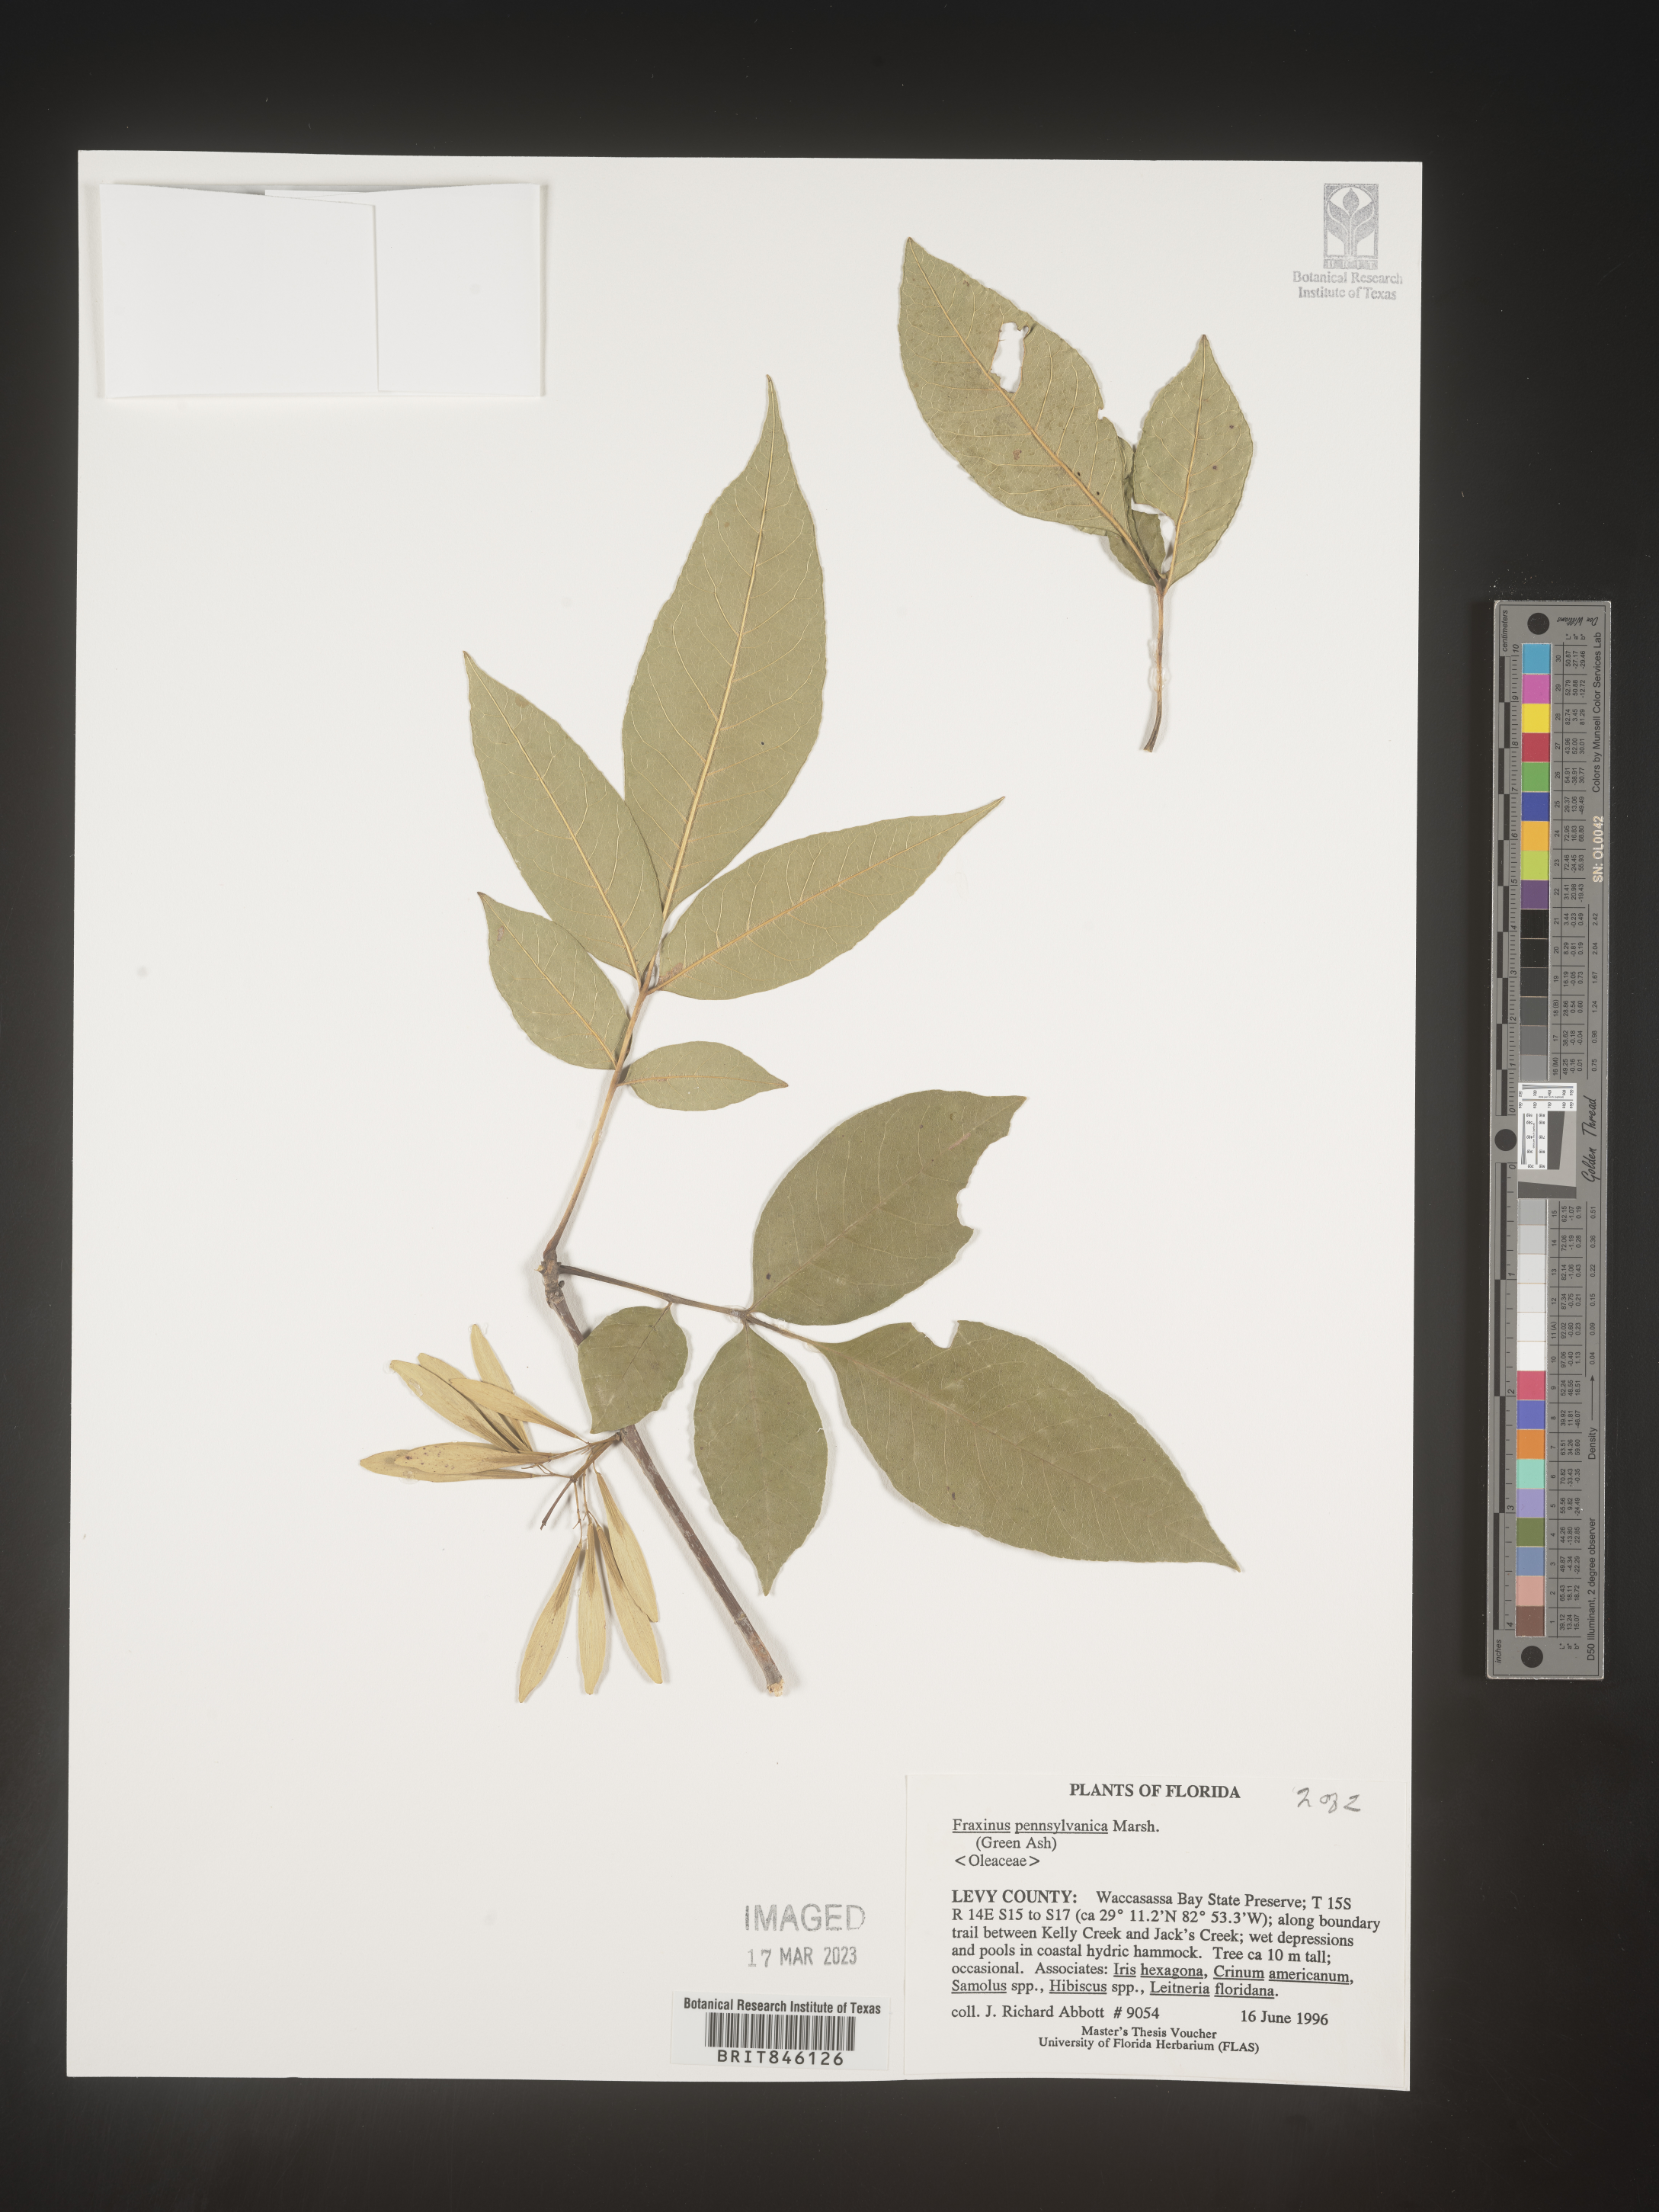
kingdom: Plantae
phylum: Tracheophyta
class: Magnoliopsida
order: Lamiales
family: Oleaceae
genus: Fraxinus
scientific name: Fraxinus pennsylvanica
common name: Green ash
